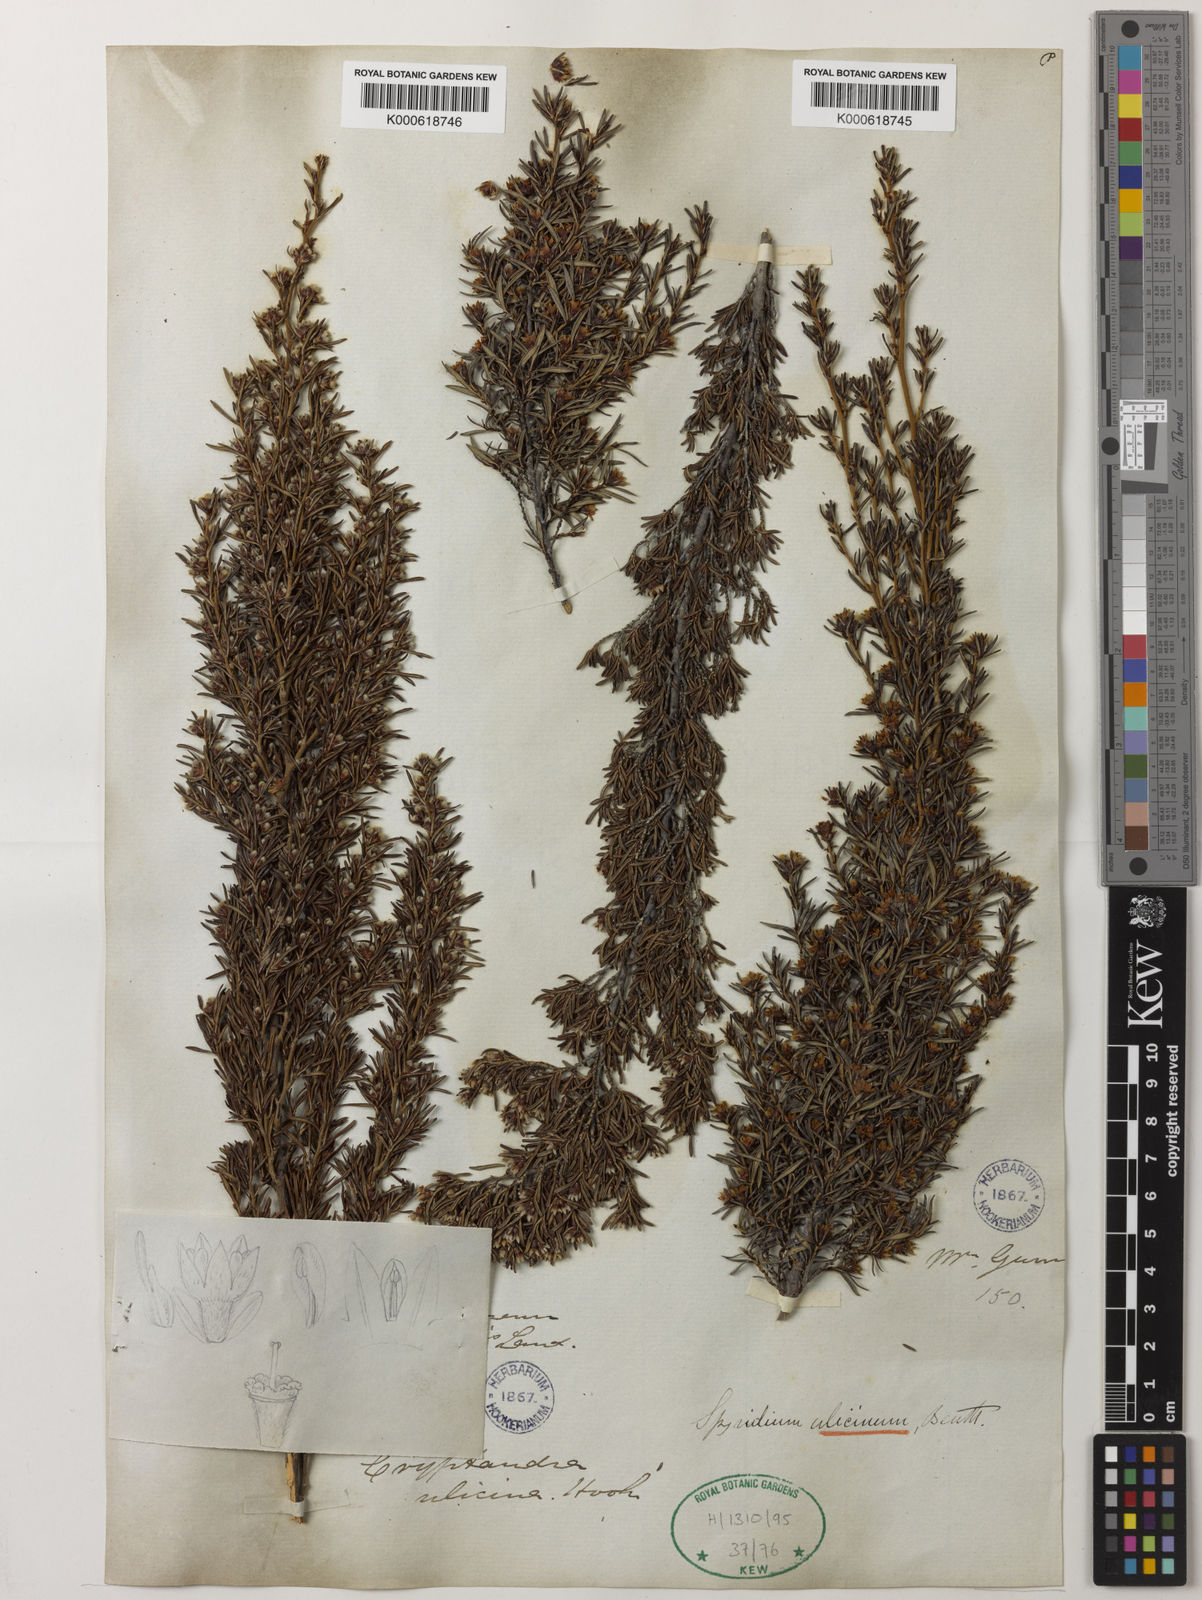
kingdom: Plantae
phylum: Tracheophyta
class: Magnoliopsida
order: Rosales
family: Rhamnaceae
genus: Spyridium
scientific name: Spyridium ulicinum
